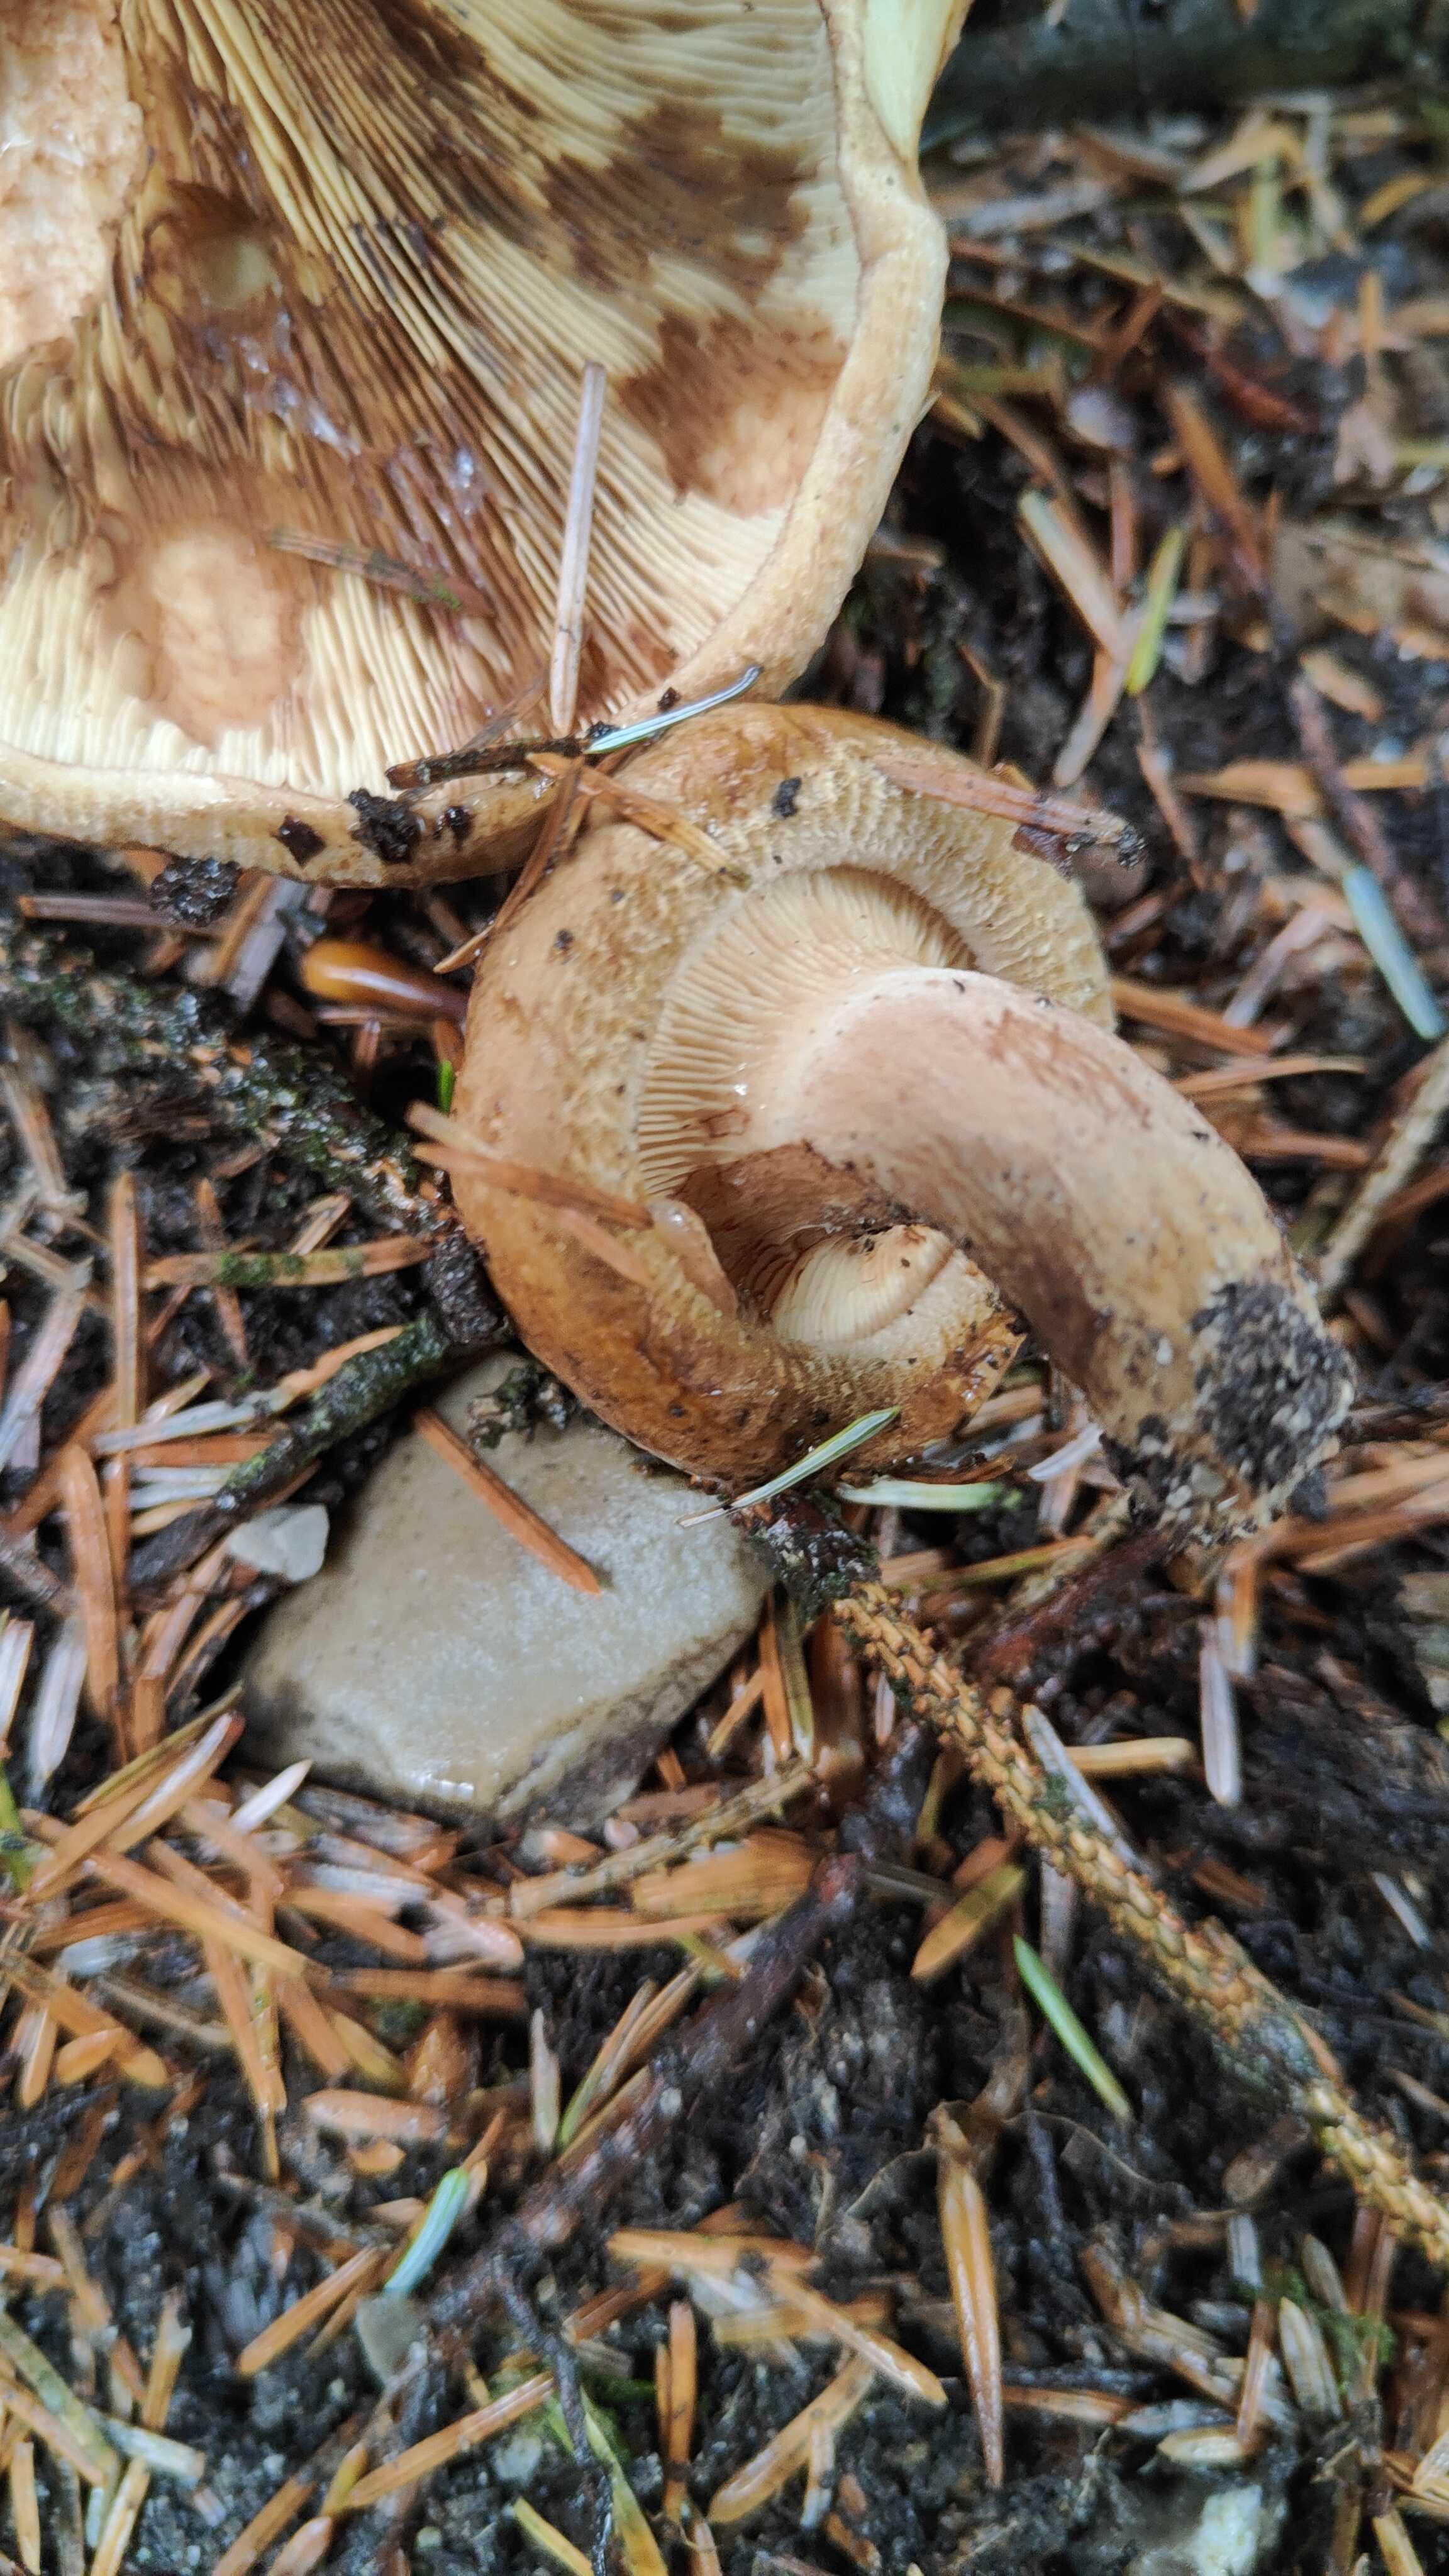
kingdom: Fungi
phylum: Basidiomycota
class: Agaricomycetes
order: Boletales
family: Paxillaceae
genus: Paxillus
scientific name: Paxillus involutus
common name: almindelig netbladhat
